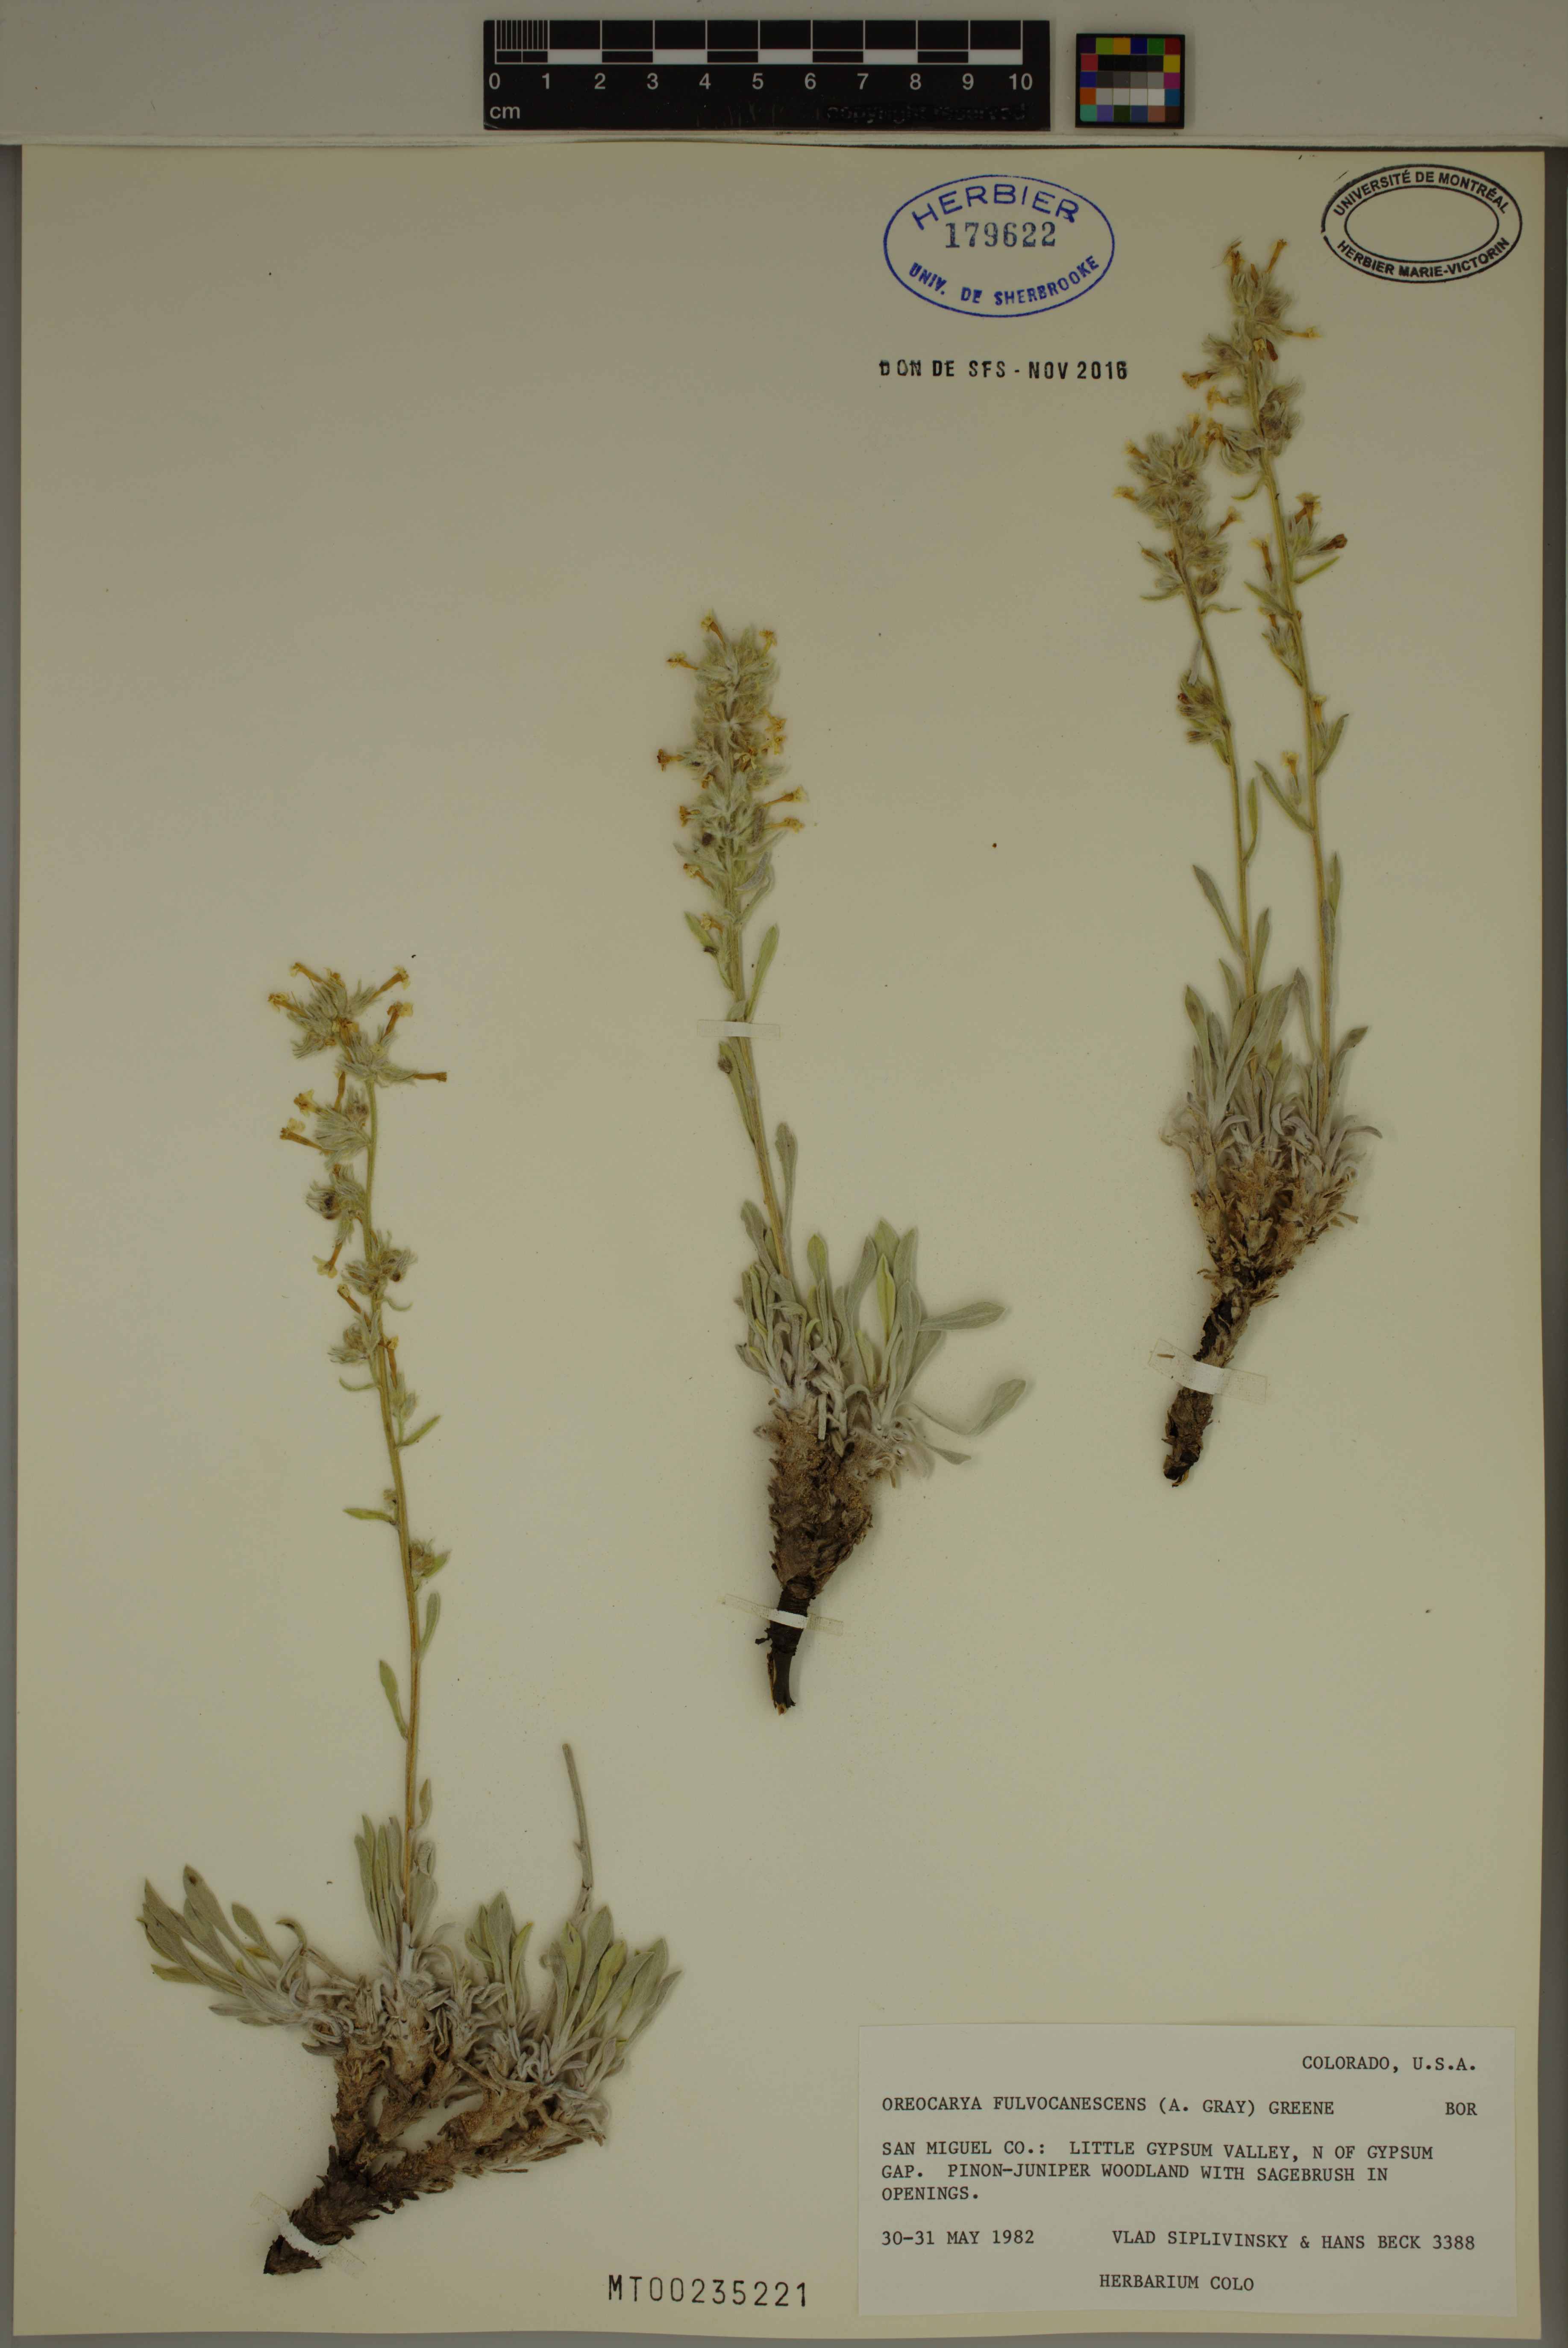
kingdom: Plantae
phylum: Tracheophyta
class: Magnoliopsida
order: Boraginales
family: Boraginaceae
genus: Oreocarya
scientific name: Oreocarya fulvocanescens
